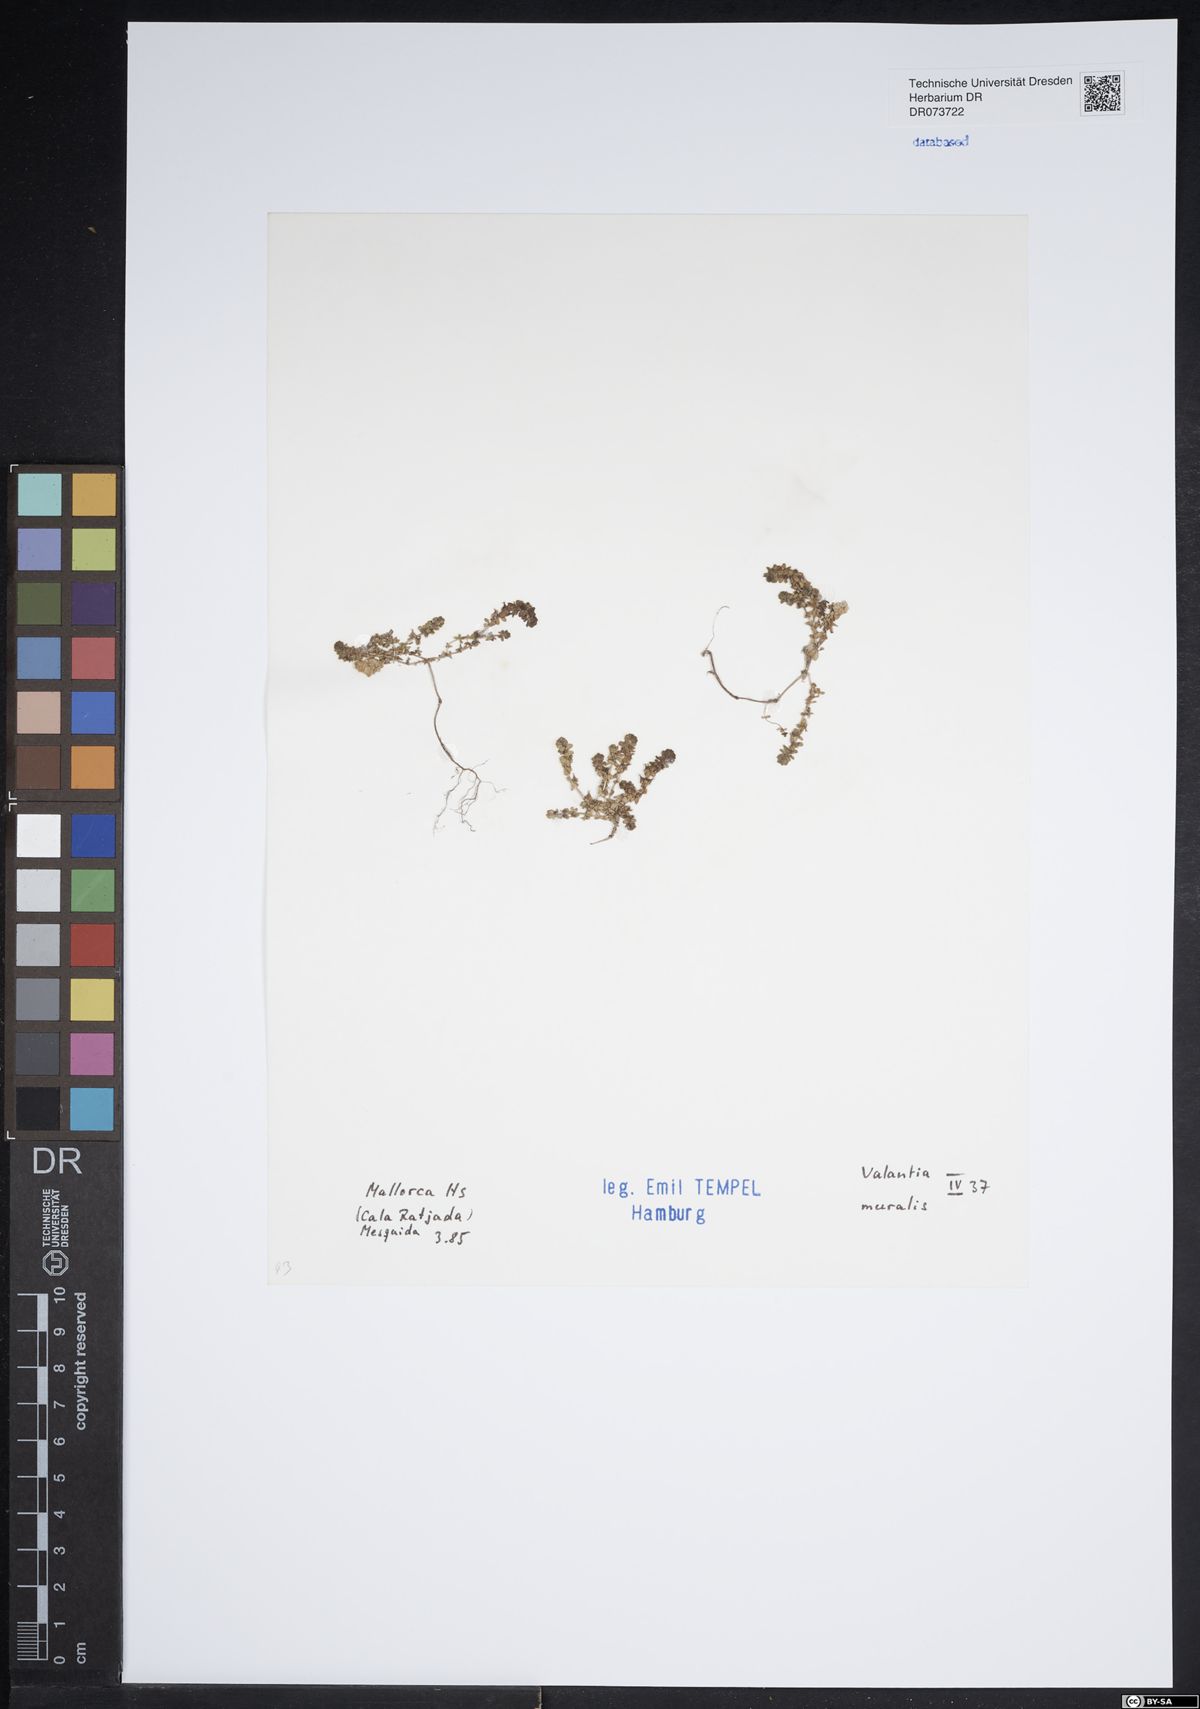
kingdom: Plantae
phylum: Tracheophyta
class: Magnoliopsida
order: Gentianales
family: Rubiaceae
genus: Valantia
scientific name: Valantia muralis
